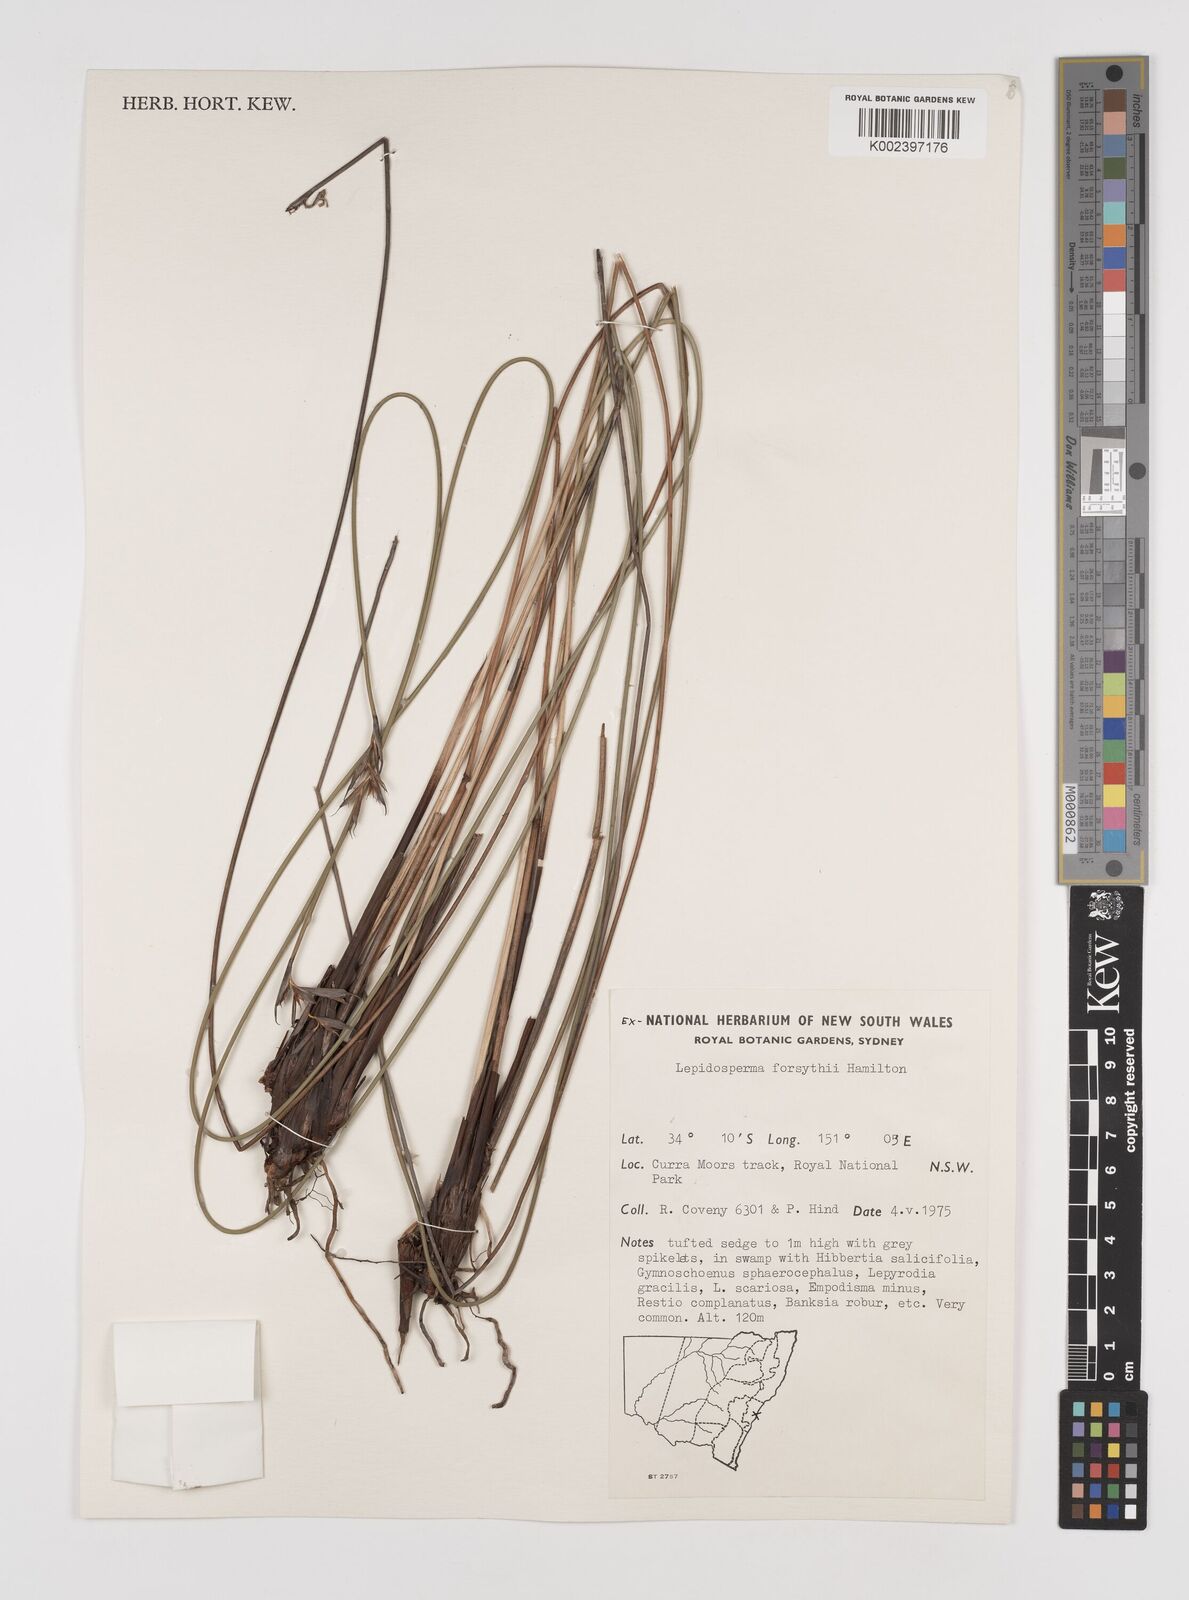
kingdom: Plantae
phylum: Tracheophyta
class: Liliopsida
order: Poales
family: Cyperaceae
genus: Lepidosperma
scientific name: Lepidosperma forsythii
